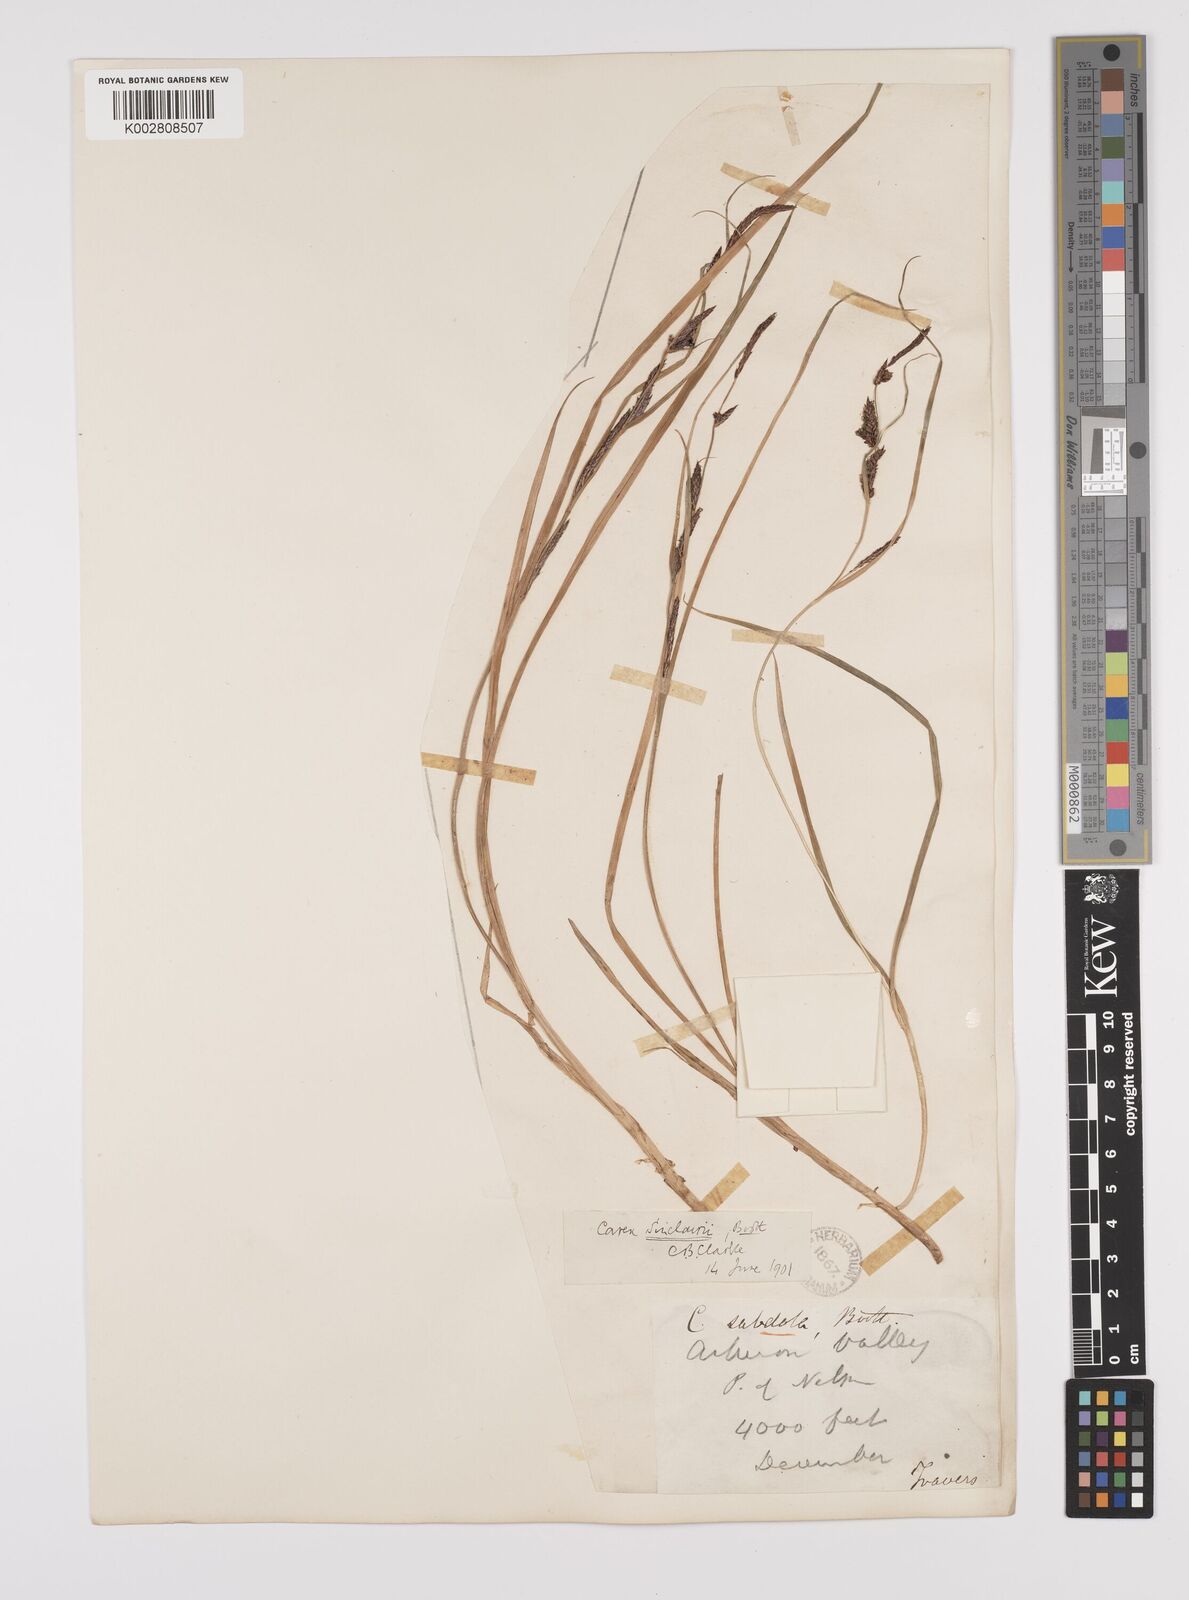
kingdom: Plantae
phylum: Tracheophyta
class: Liliopsida
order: Poales
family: Cyperaceae
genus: Carex
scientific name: Carex sinclairii
